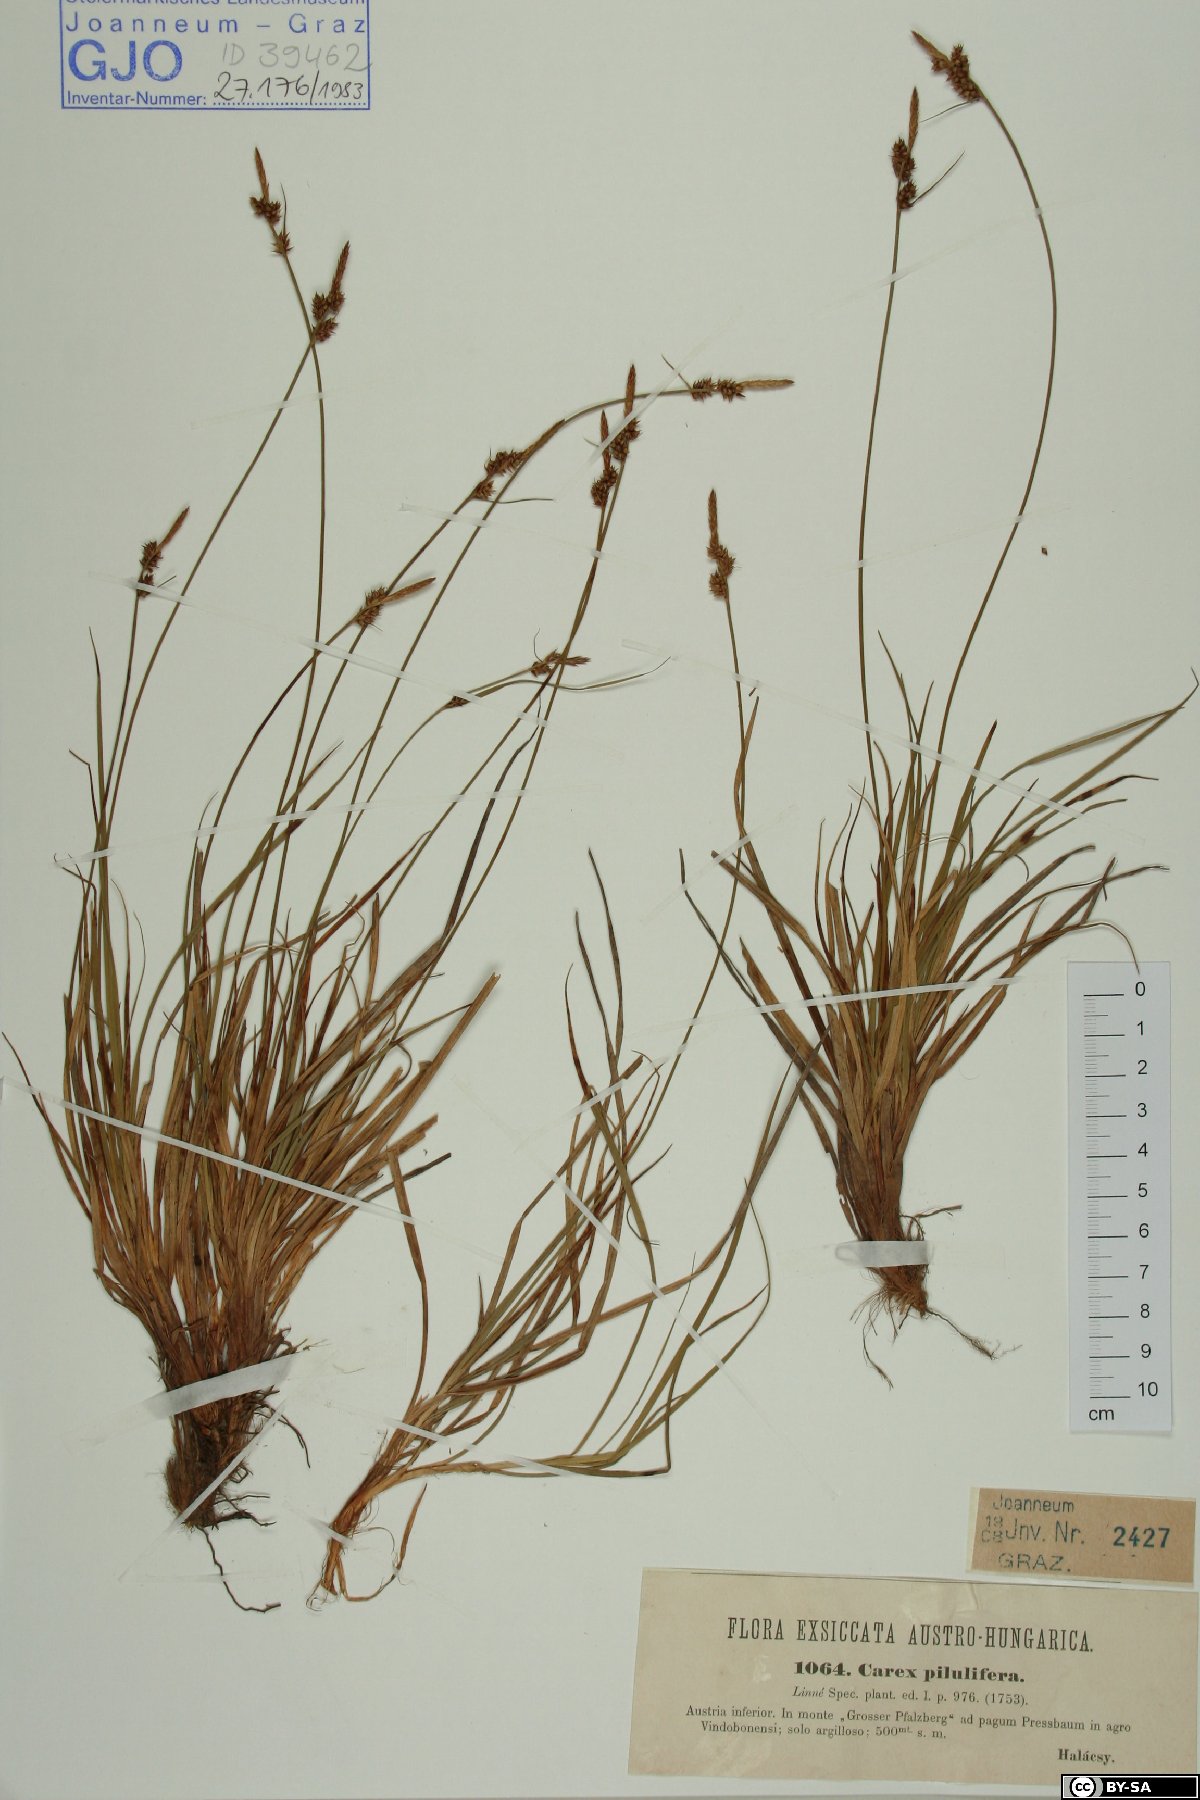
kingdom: Plantae
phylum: Tracheophyta
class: Liliopsida
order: Poales
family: Cyperaceae
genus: Carex
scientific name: Carex pilulifera
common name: Pill sedge
